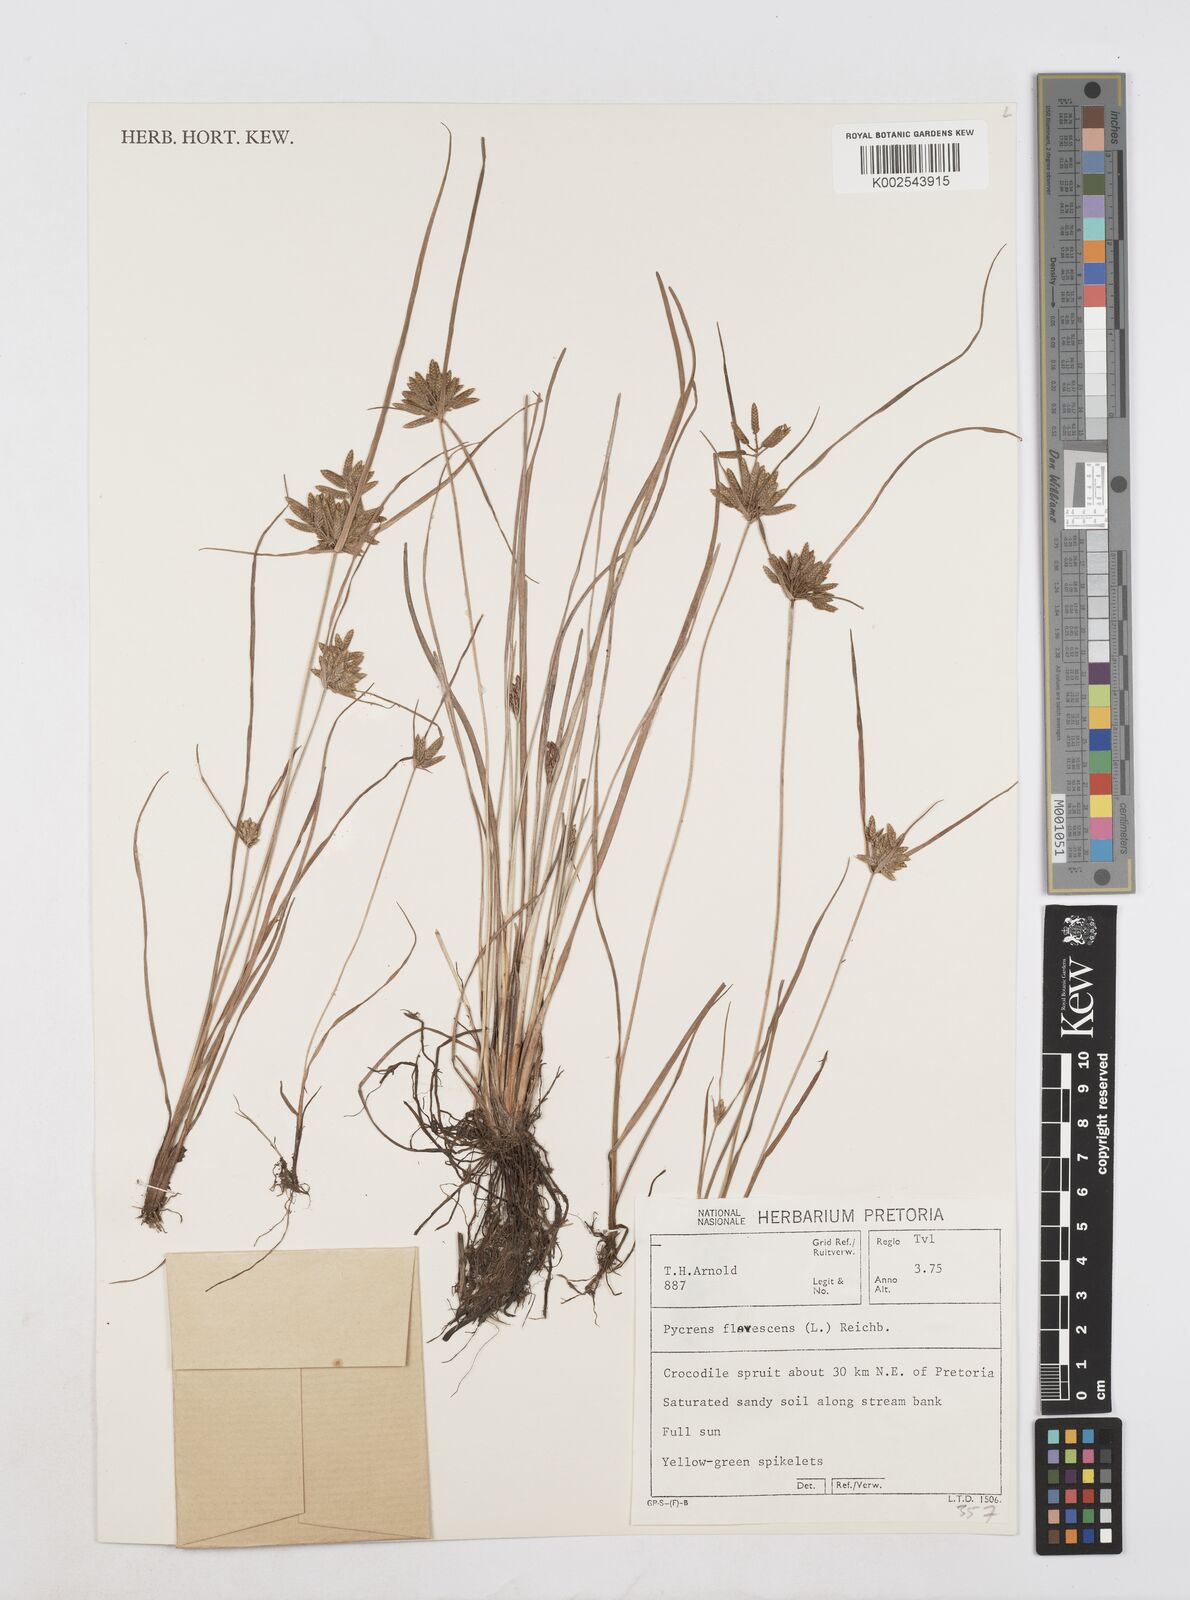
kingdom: Plantae
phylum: Tracheophyta
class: Liliopsida
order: Poales
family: Cyperaceae
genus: Cyperus
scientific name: Cyperus flavescens
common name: Yellow galingale
